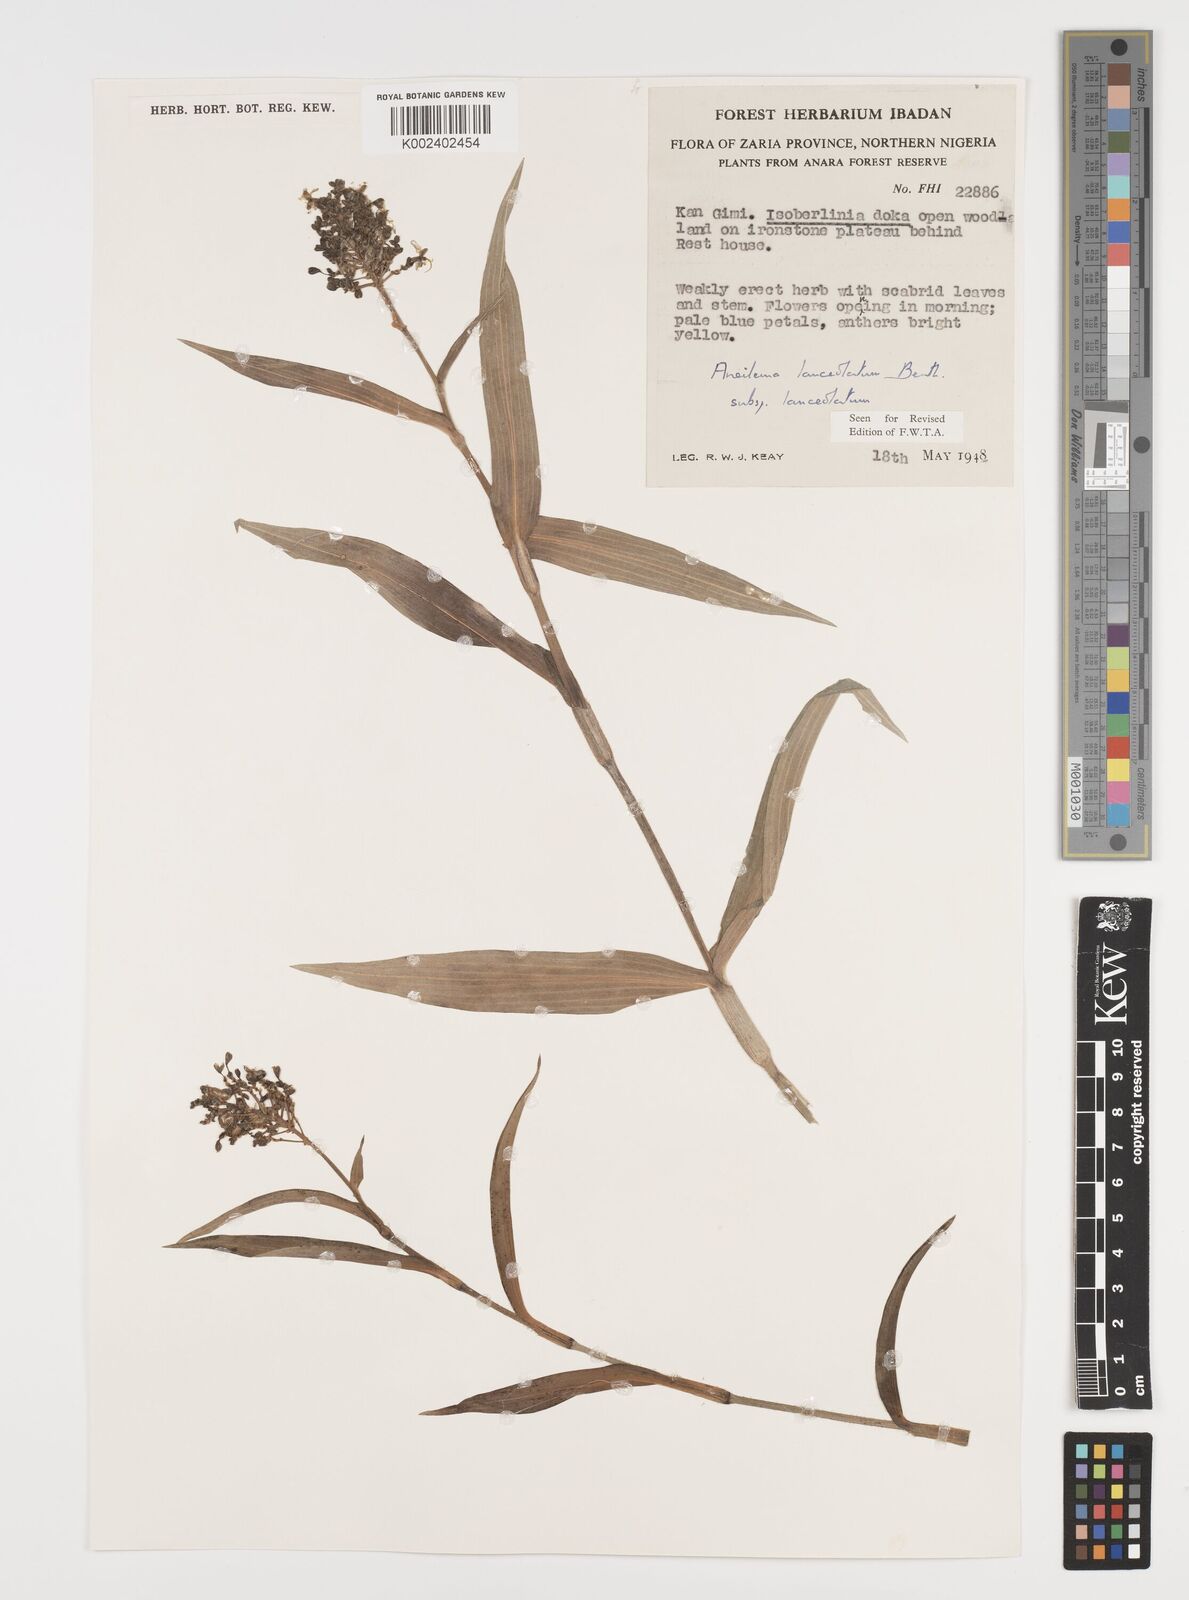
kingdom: Plantae
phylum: Tracheophyta
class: Liliopsida
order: Commelinales
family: Commelinaceae
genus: Aneilema
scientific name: Aneilema lanceolatum
